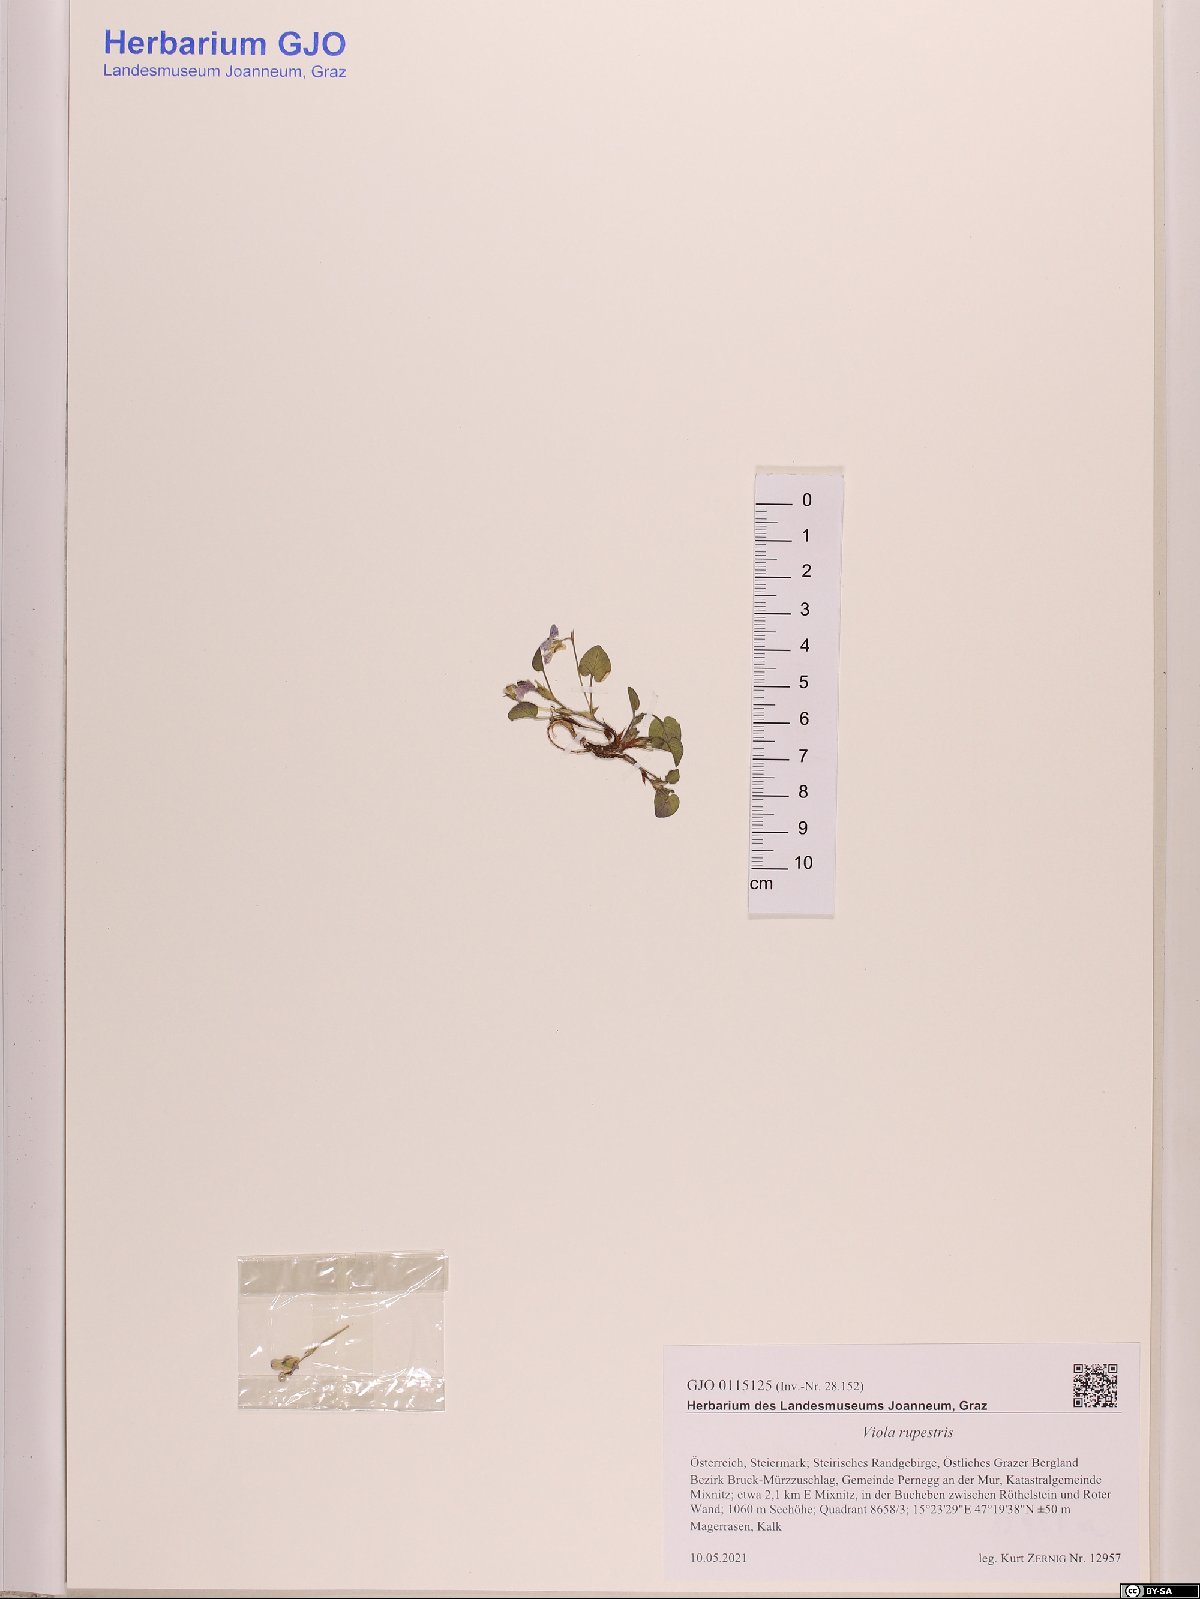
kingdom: Plantae
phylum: Tracheophyta
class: Magnoliopsida
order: Malpighiales
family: Violaceae
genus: Viola
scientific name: Viola rupestris
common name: Teesdale violet
